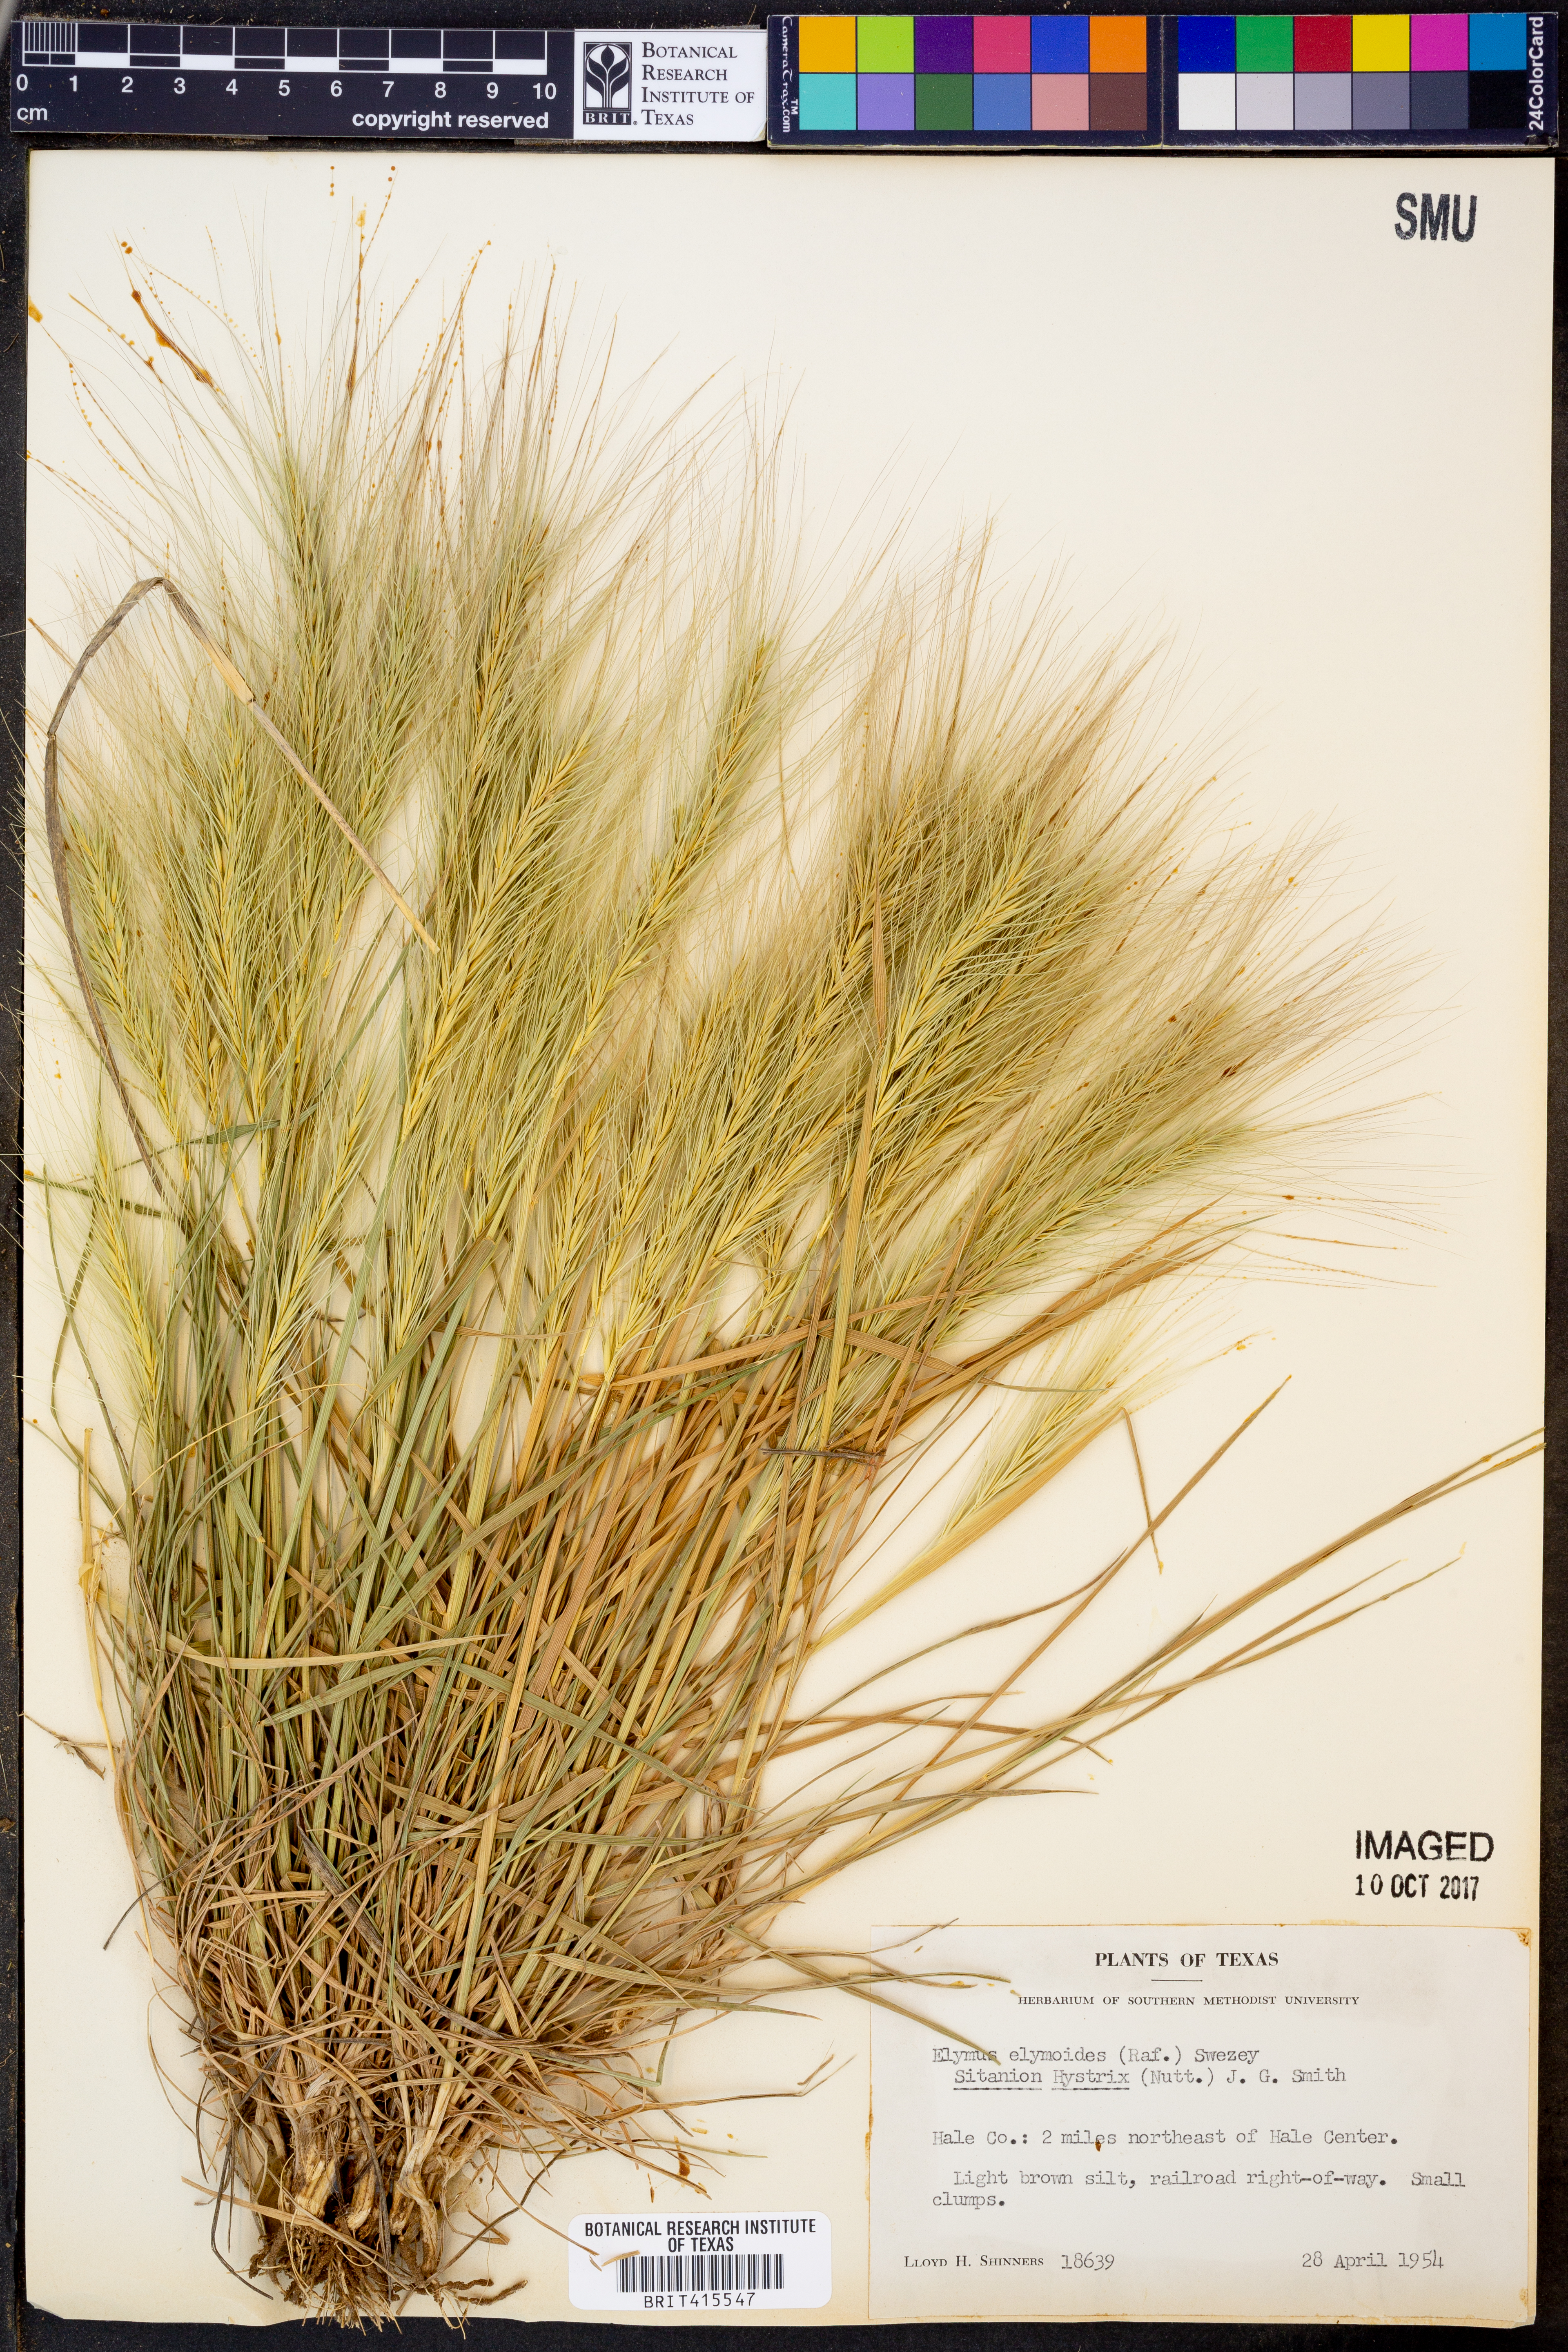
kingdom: Plantae
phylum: Tracheophyta
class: Liliopsida
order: Poales
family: Poaceae
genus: Elymus
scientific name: Elymus elymoides
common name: Bottlebrush squirreltail
